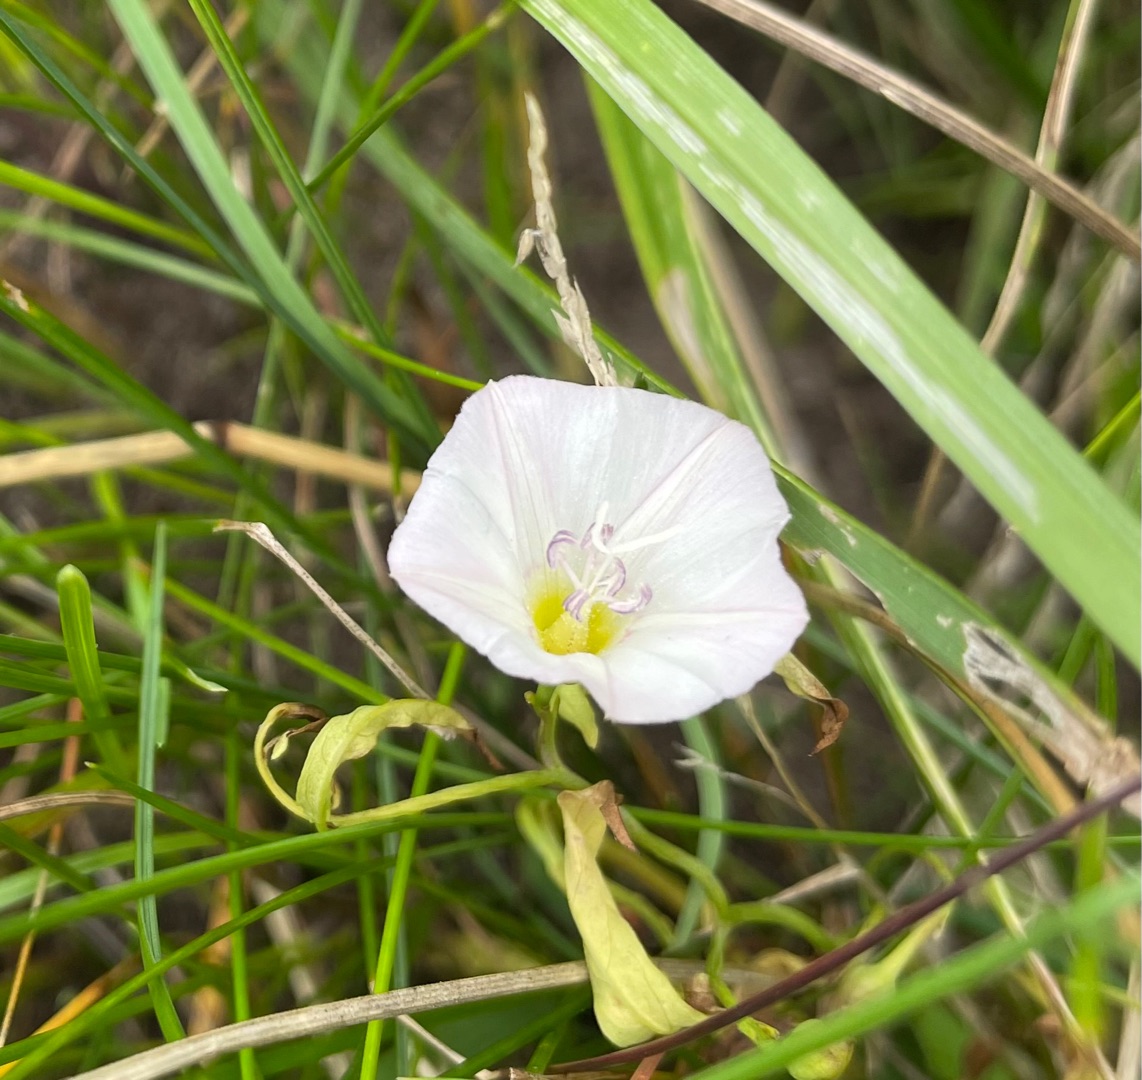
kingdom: Plantae
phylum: Tracheophyta
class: Magnoliopsida
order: Solanales
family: Convolvulaceae
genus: Convolvulus
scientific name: Convolvulus arvensis
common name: Ager-snerle
